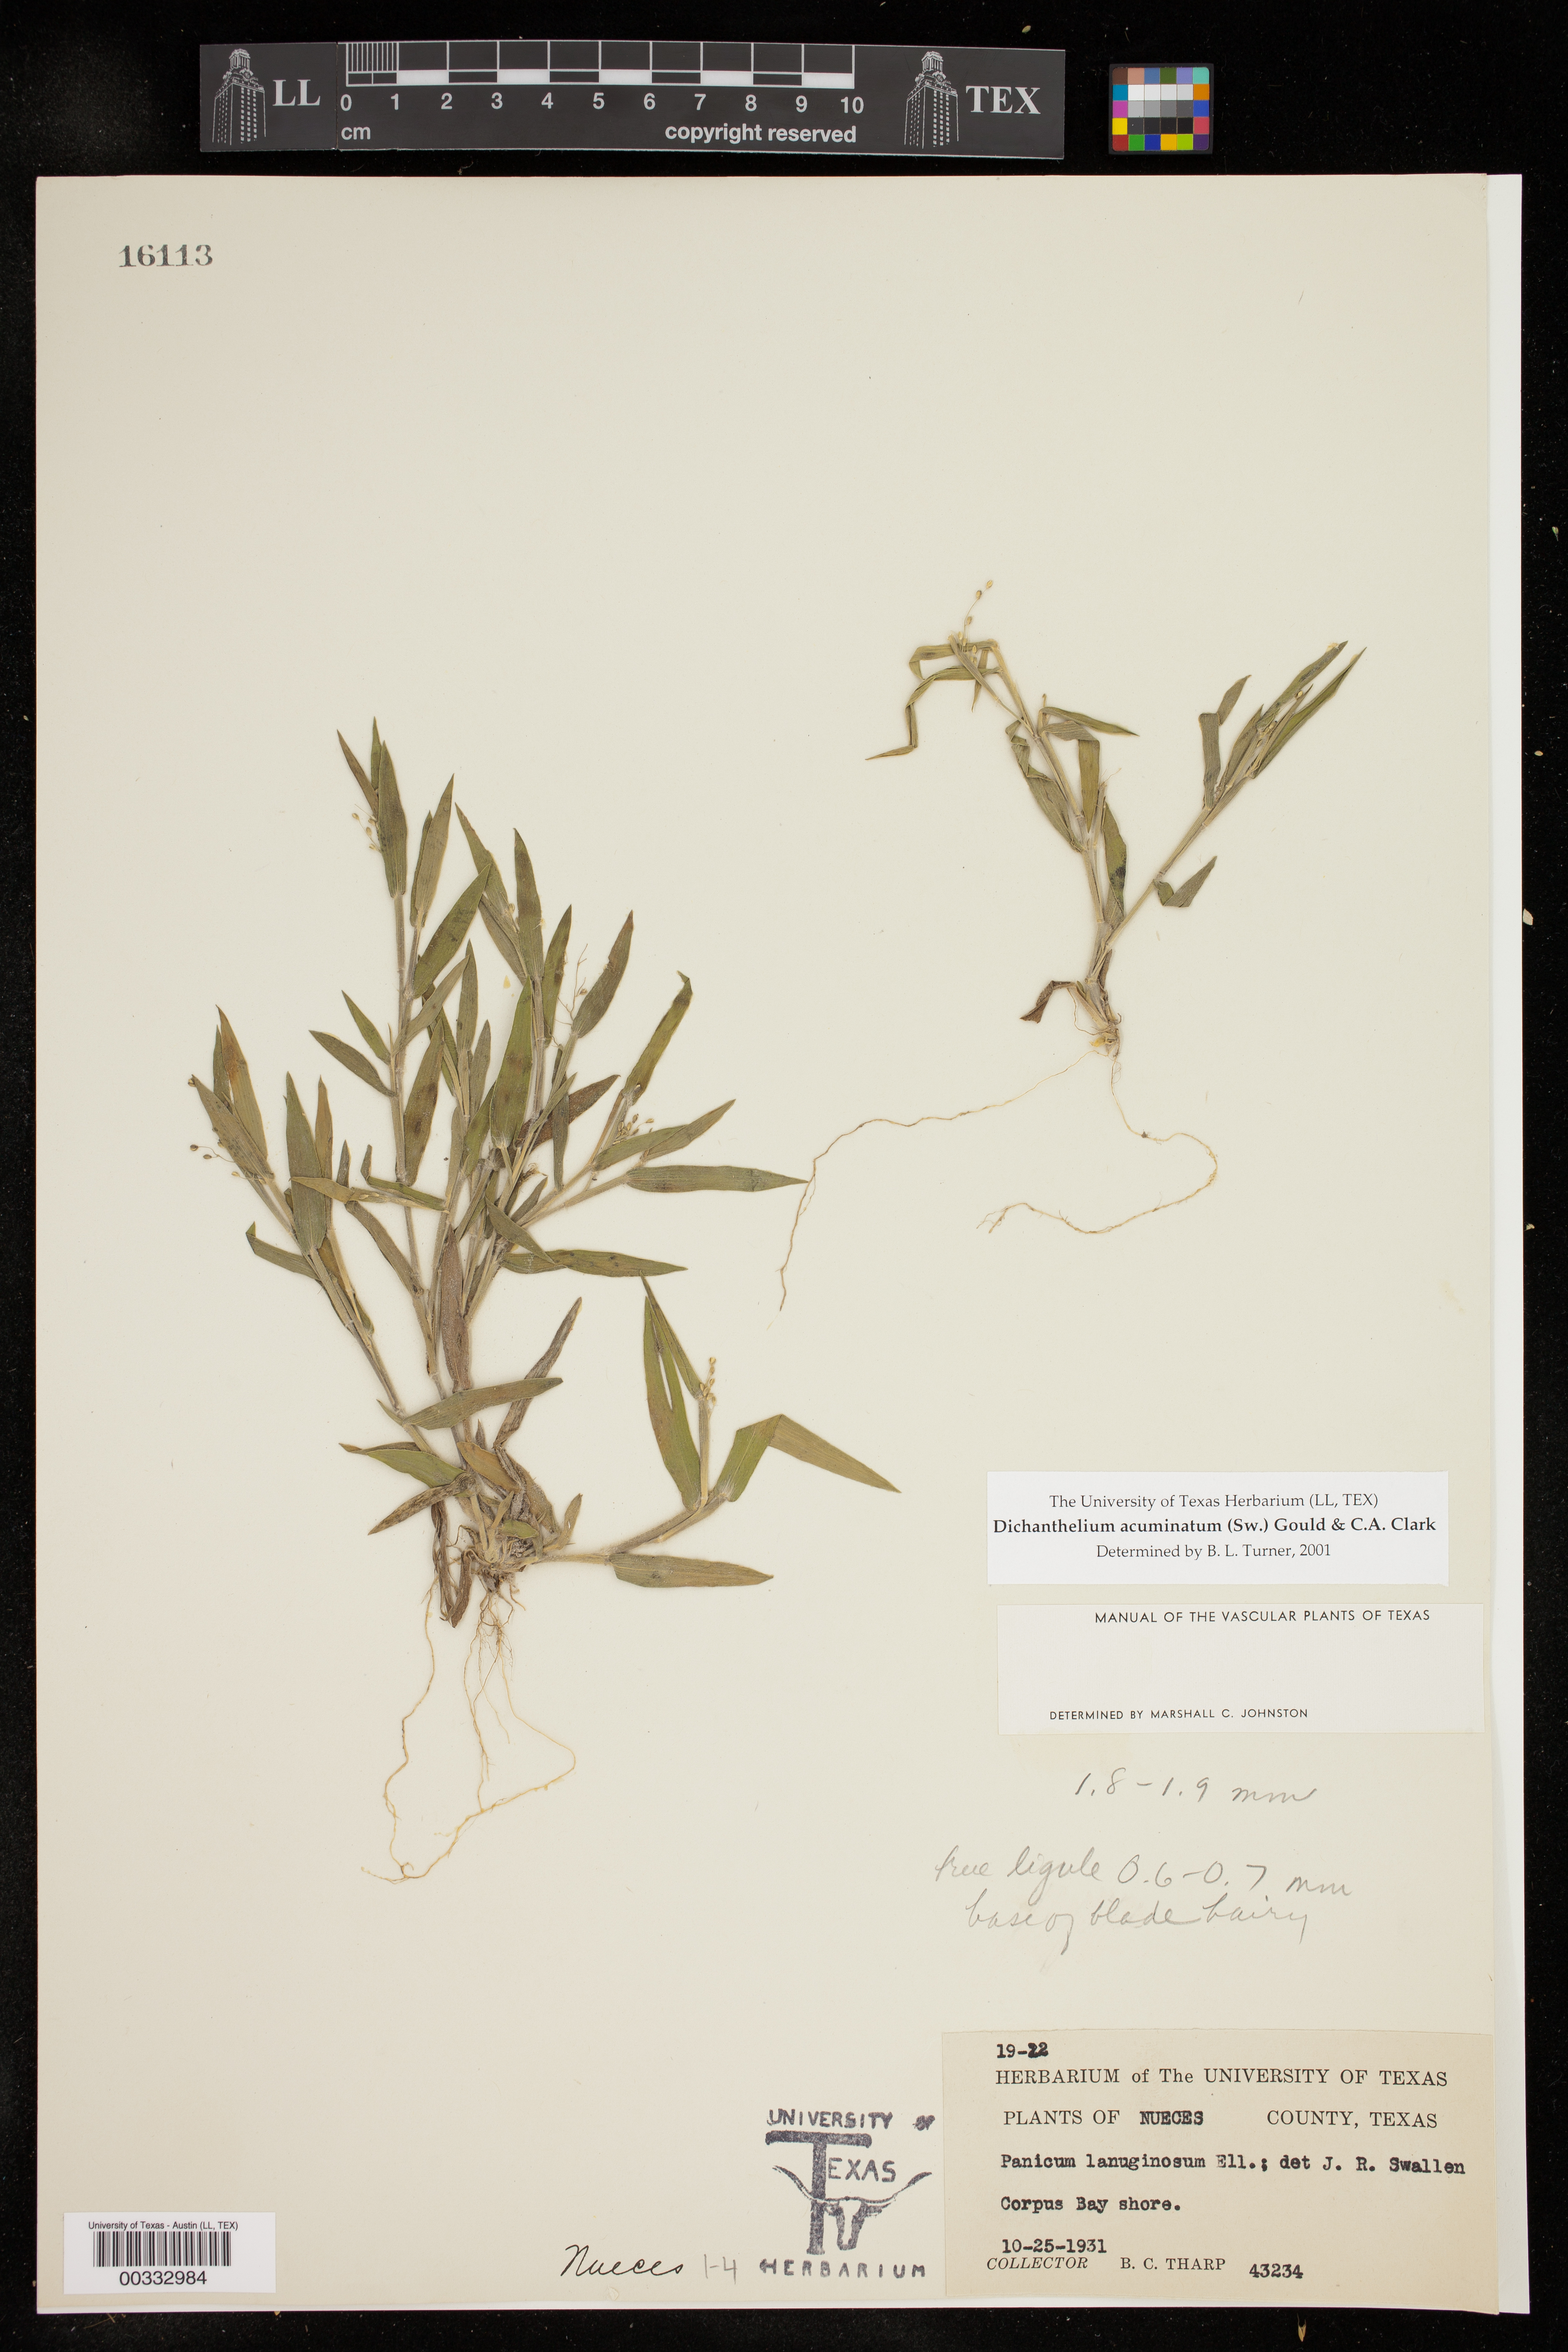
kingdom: Plantae
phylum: Tracheophyta
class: Liliopsida
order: Poales
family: Poaceae
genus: Dichanthelium
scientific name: Dichanthelium acuminatum
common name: Hairy panic grass
